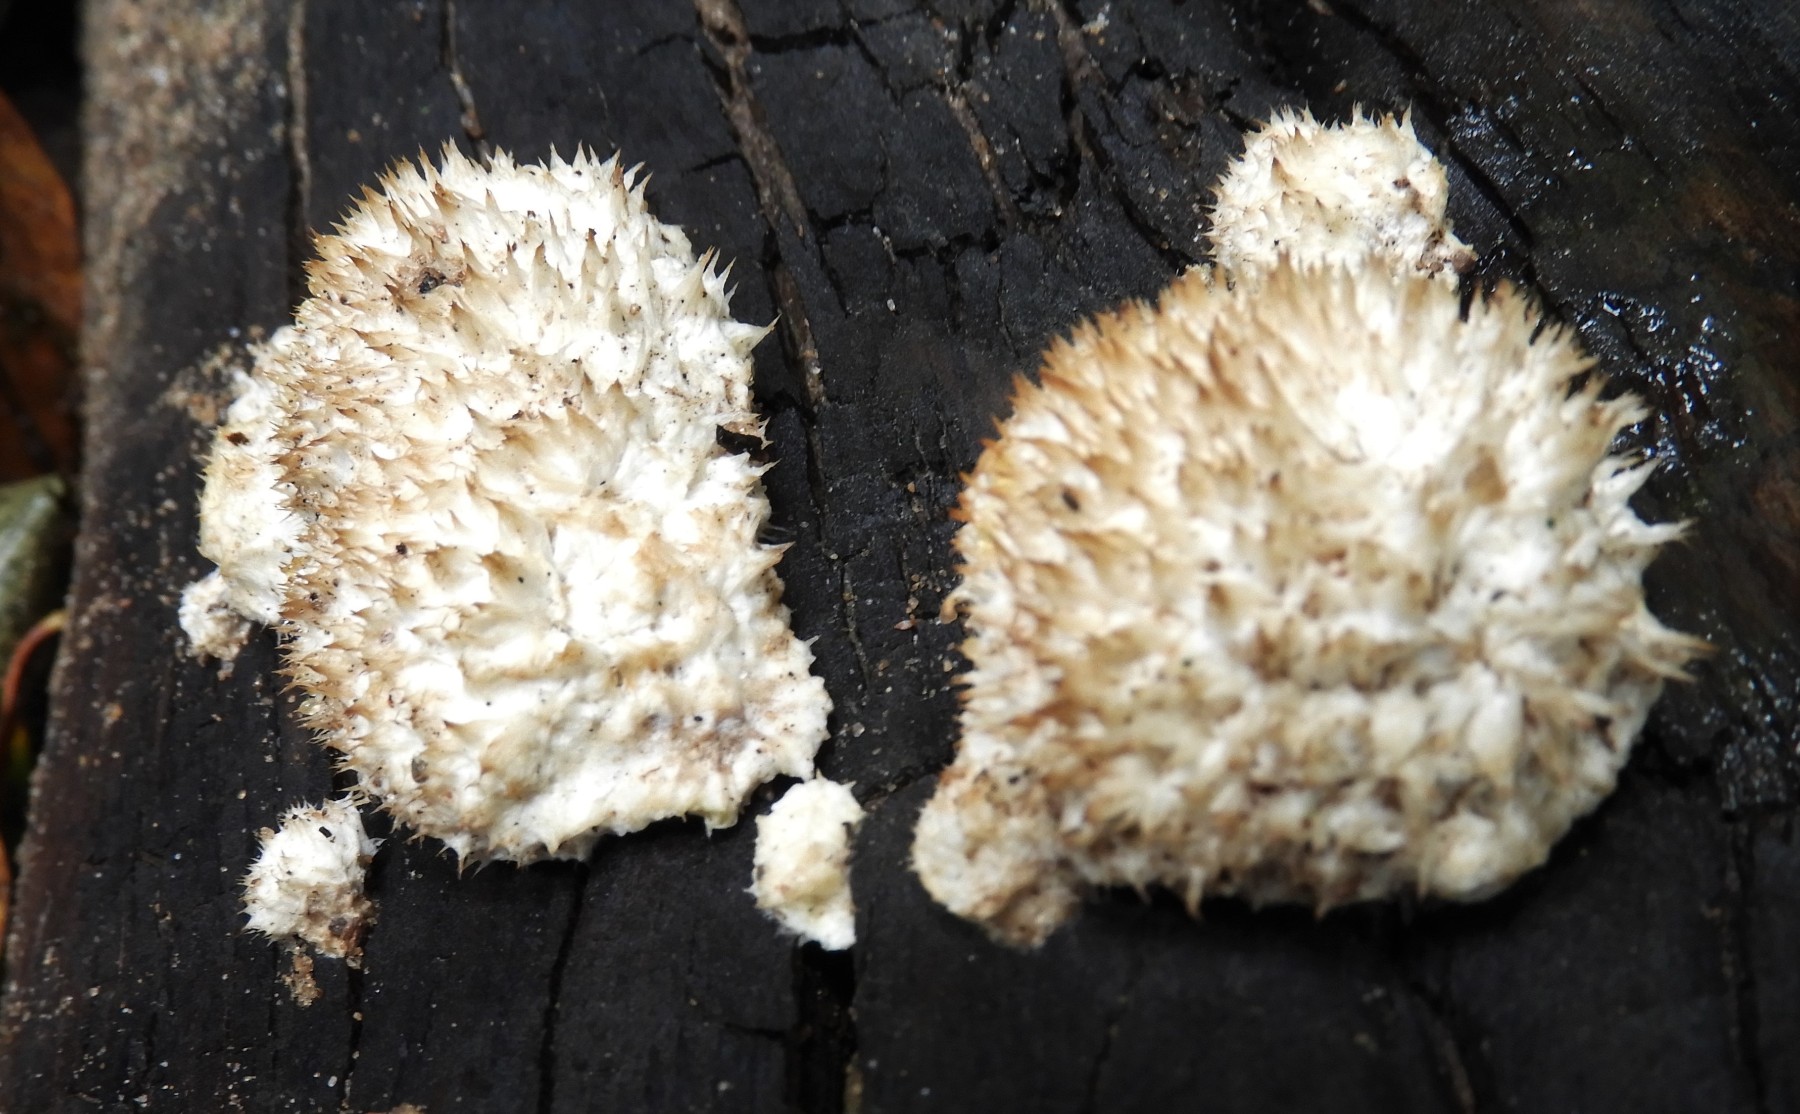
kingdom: Fungi
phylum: Basidiomycota
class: Agaricomycetes
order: Polyporales
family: Dacryobolaceae
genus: Postia
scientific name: Postia ptychogaster
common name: støvende kødporesvamp
